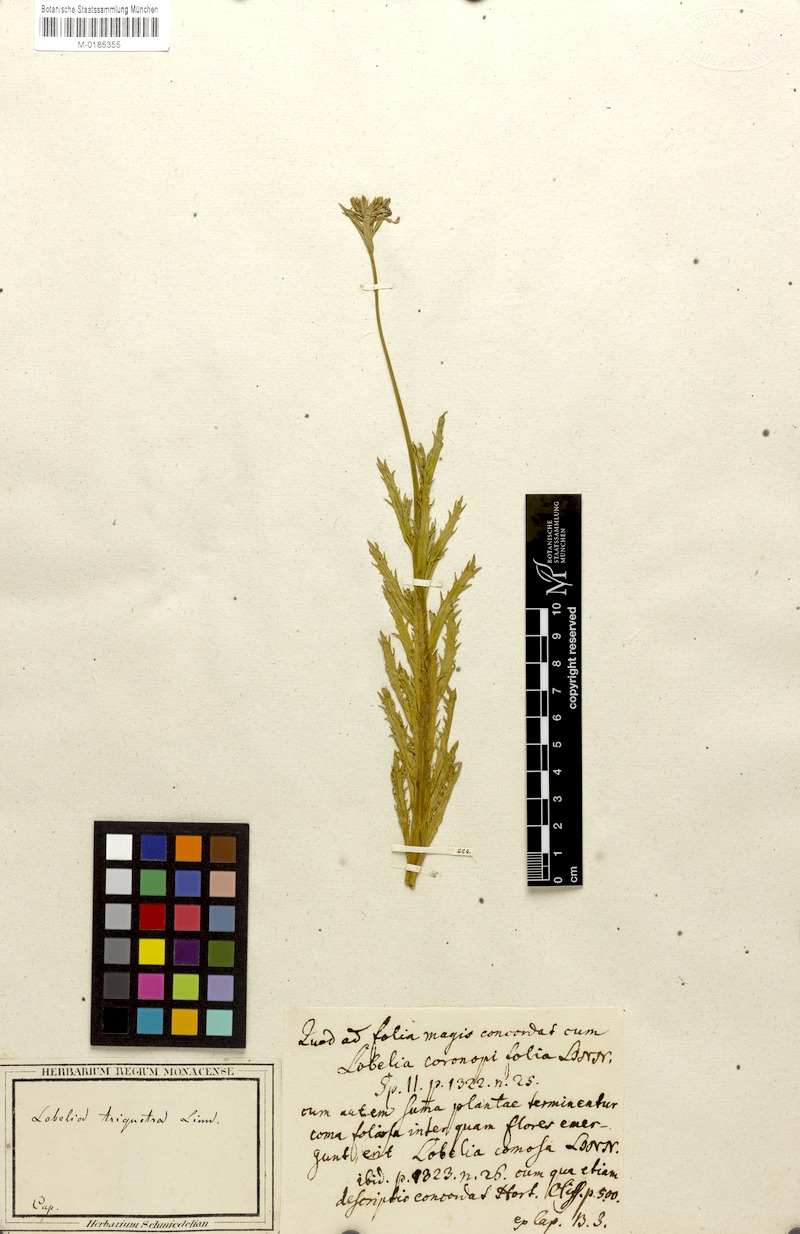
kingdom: Plantae
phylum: Tracheophyta
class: Magnoliopsida
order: Asterales
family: Campanulaceae
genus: Lobelia
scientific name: Lobelia comosa
